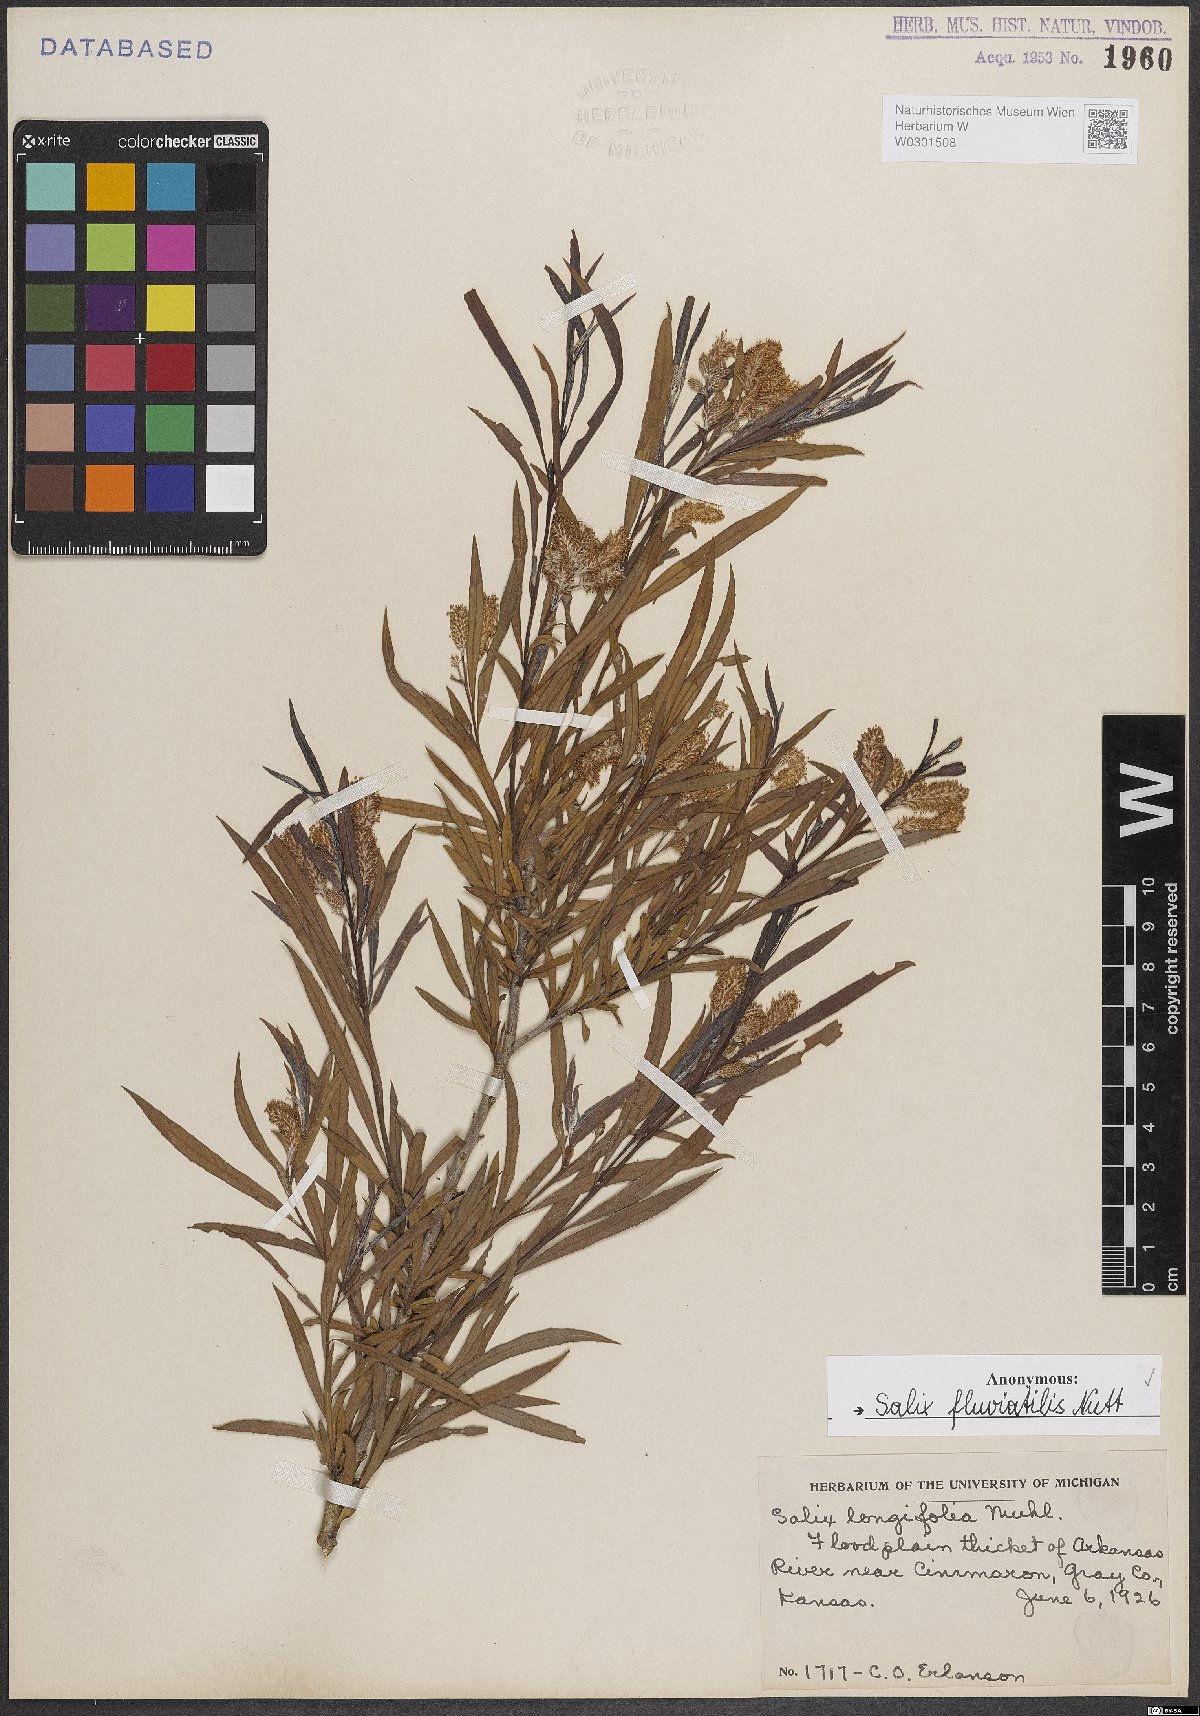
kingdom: Plantae
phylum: Tracheophyta
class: Magnoliopsida
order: Malpighiales
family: Salicaceae
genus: Salix
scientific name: Salix melanopsis
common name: Dusky willow
